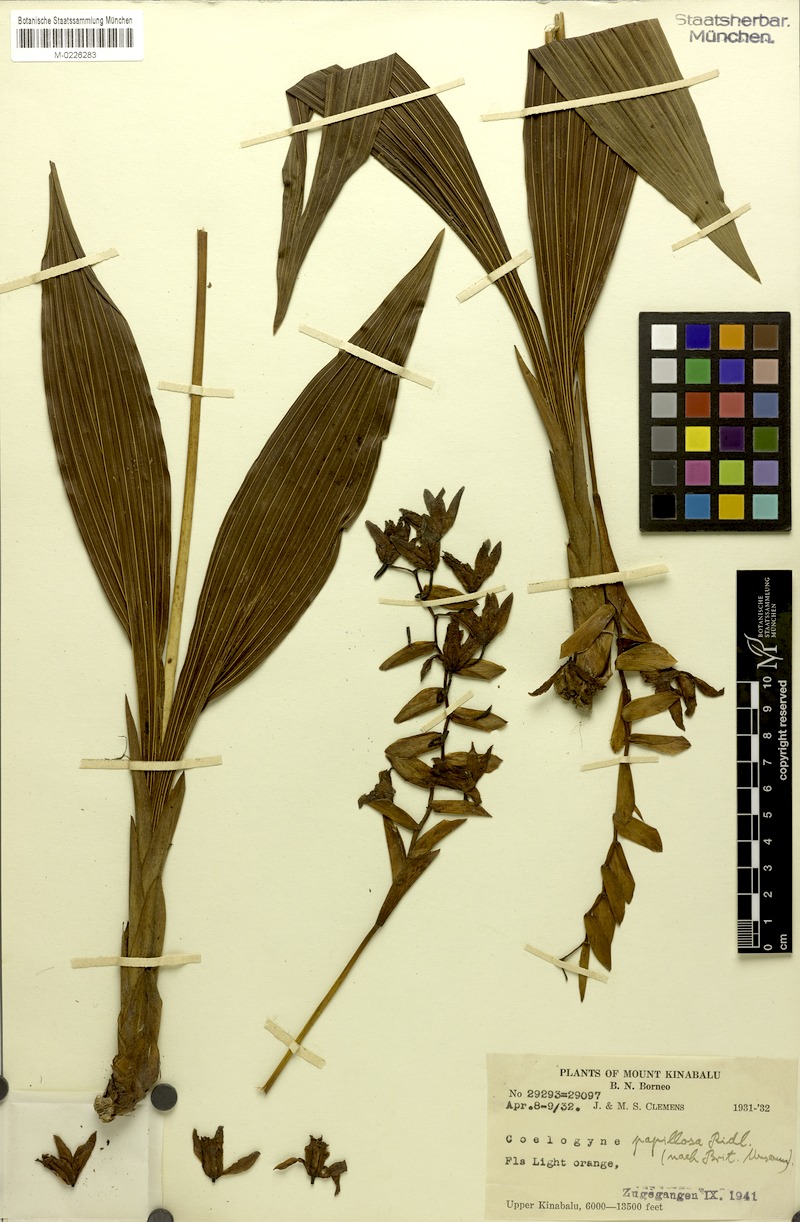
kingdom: Plantae
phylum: Tracheophyta
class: Liliopsida
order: Asparagales
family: Orchidaceae
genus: Coelogyne
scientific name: Coelogyne papillosa
